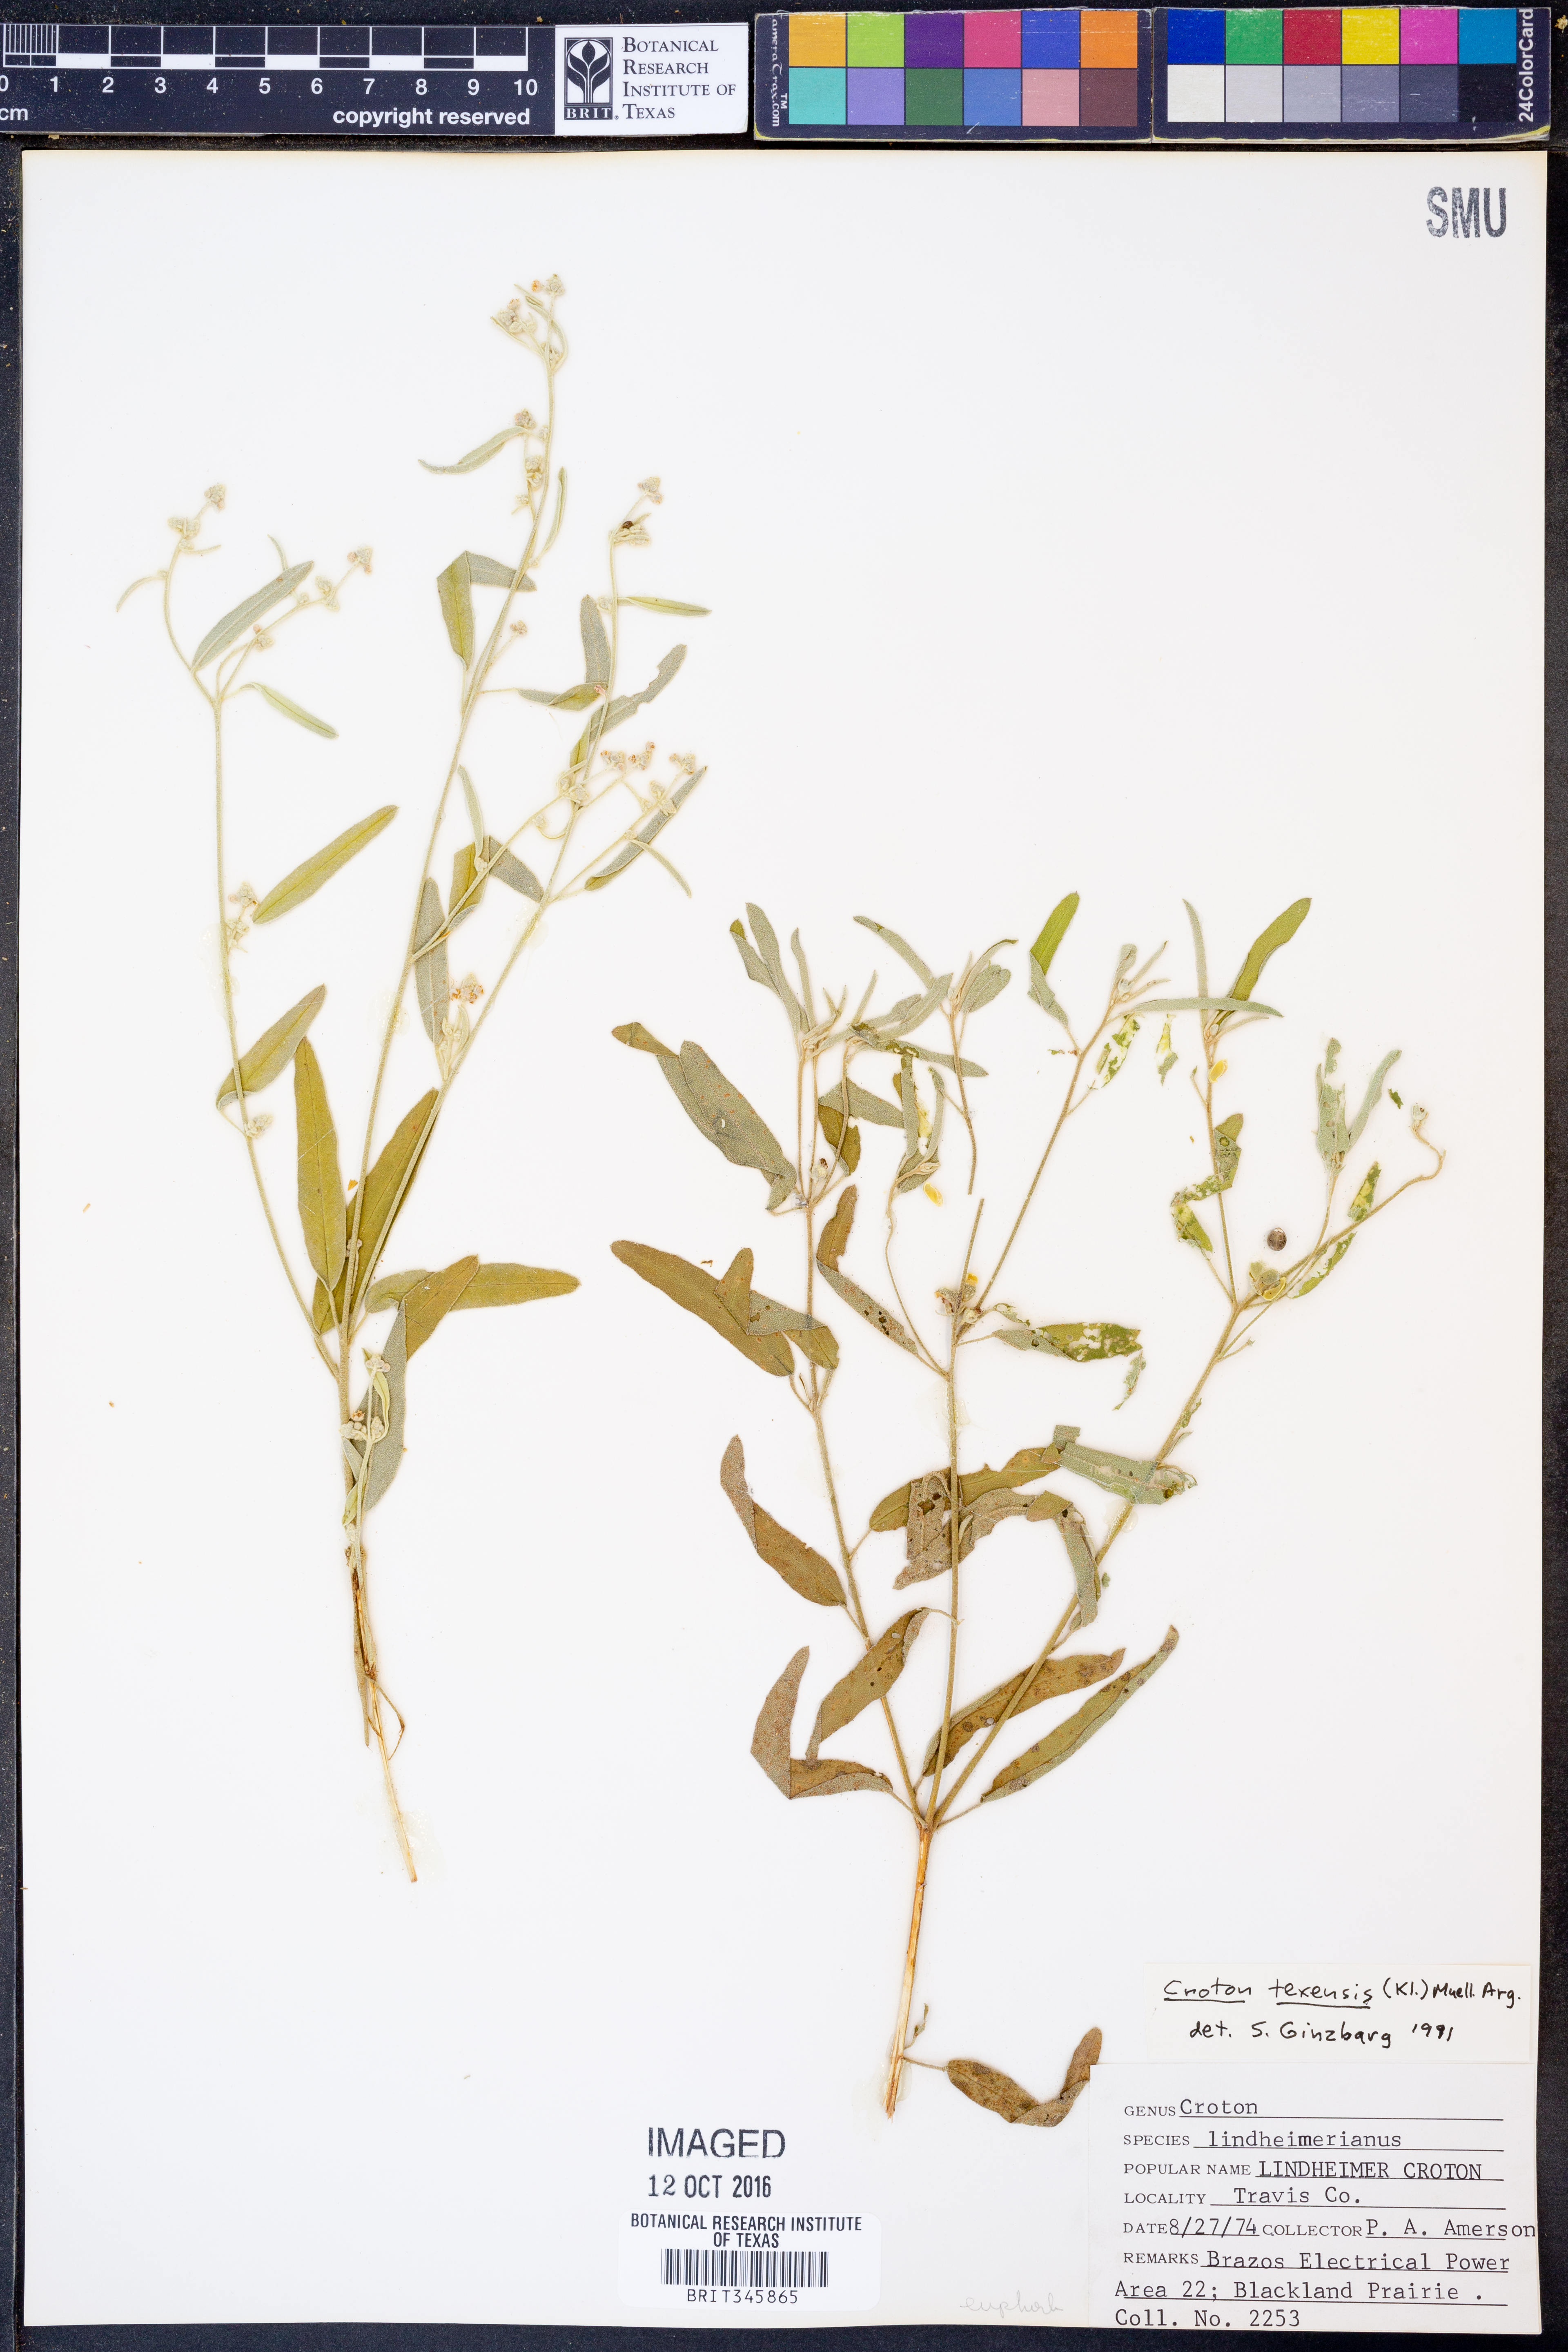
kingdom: Plantae
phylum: Tracheophyta
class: Magnoliopsida
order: Malpighiales
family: Euphorbiaceae
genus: Croton
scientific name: Croton texensis
